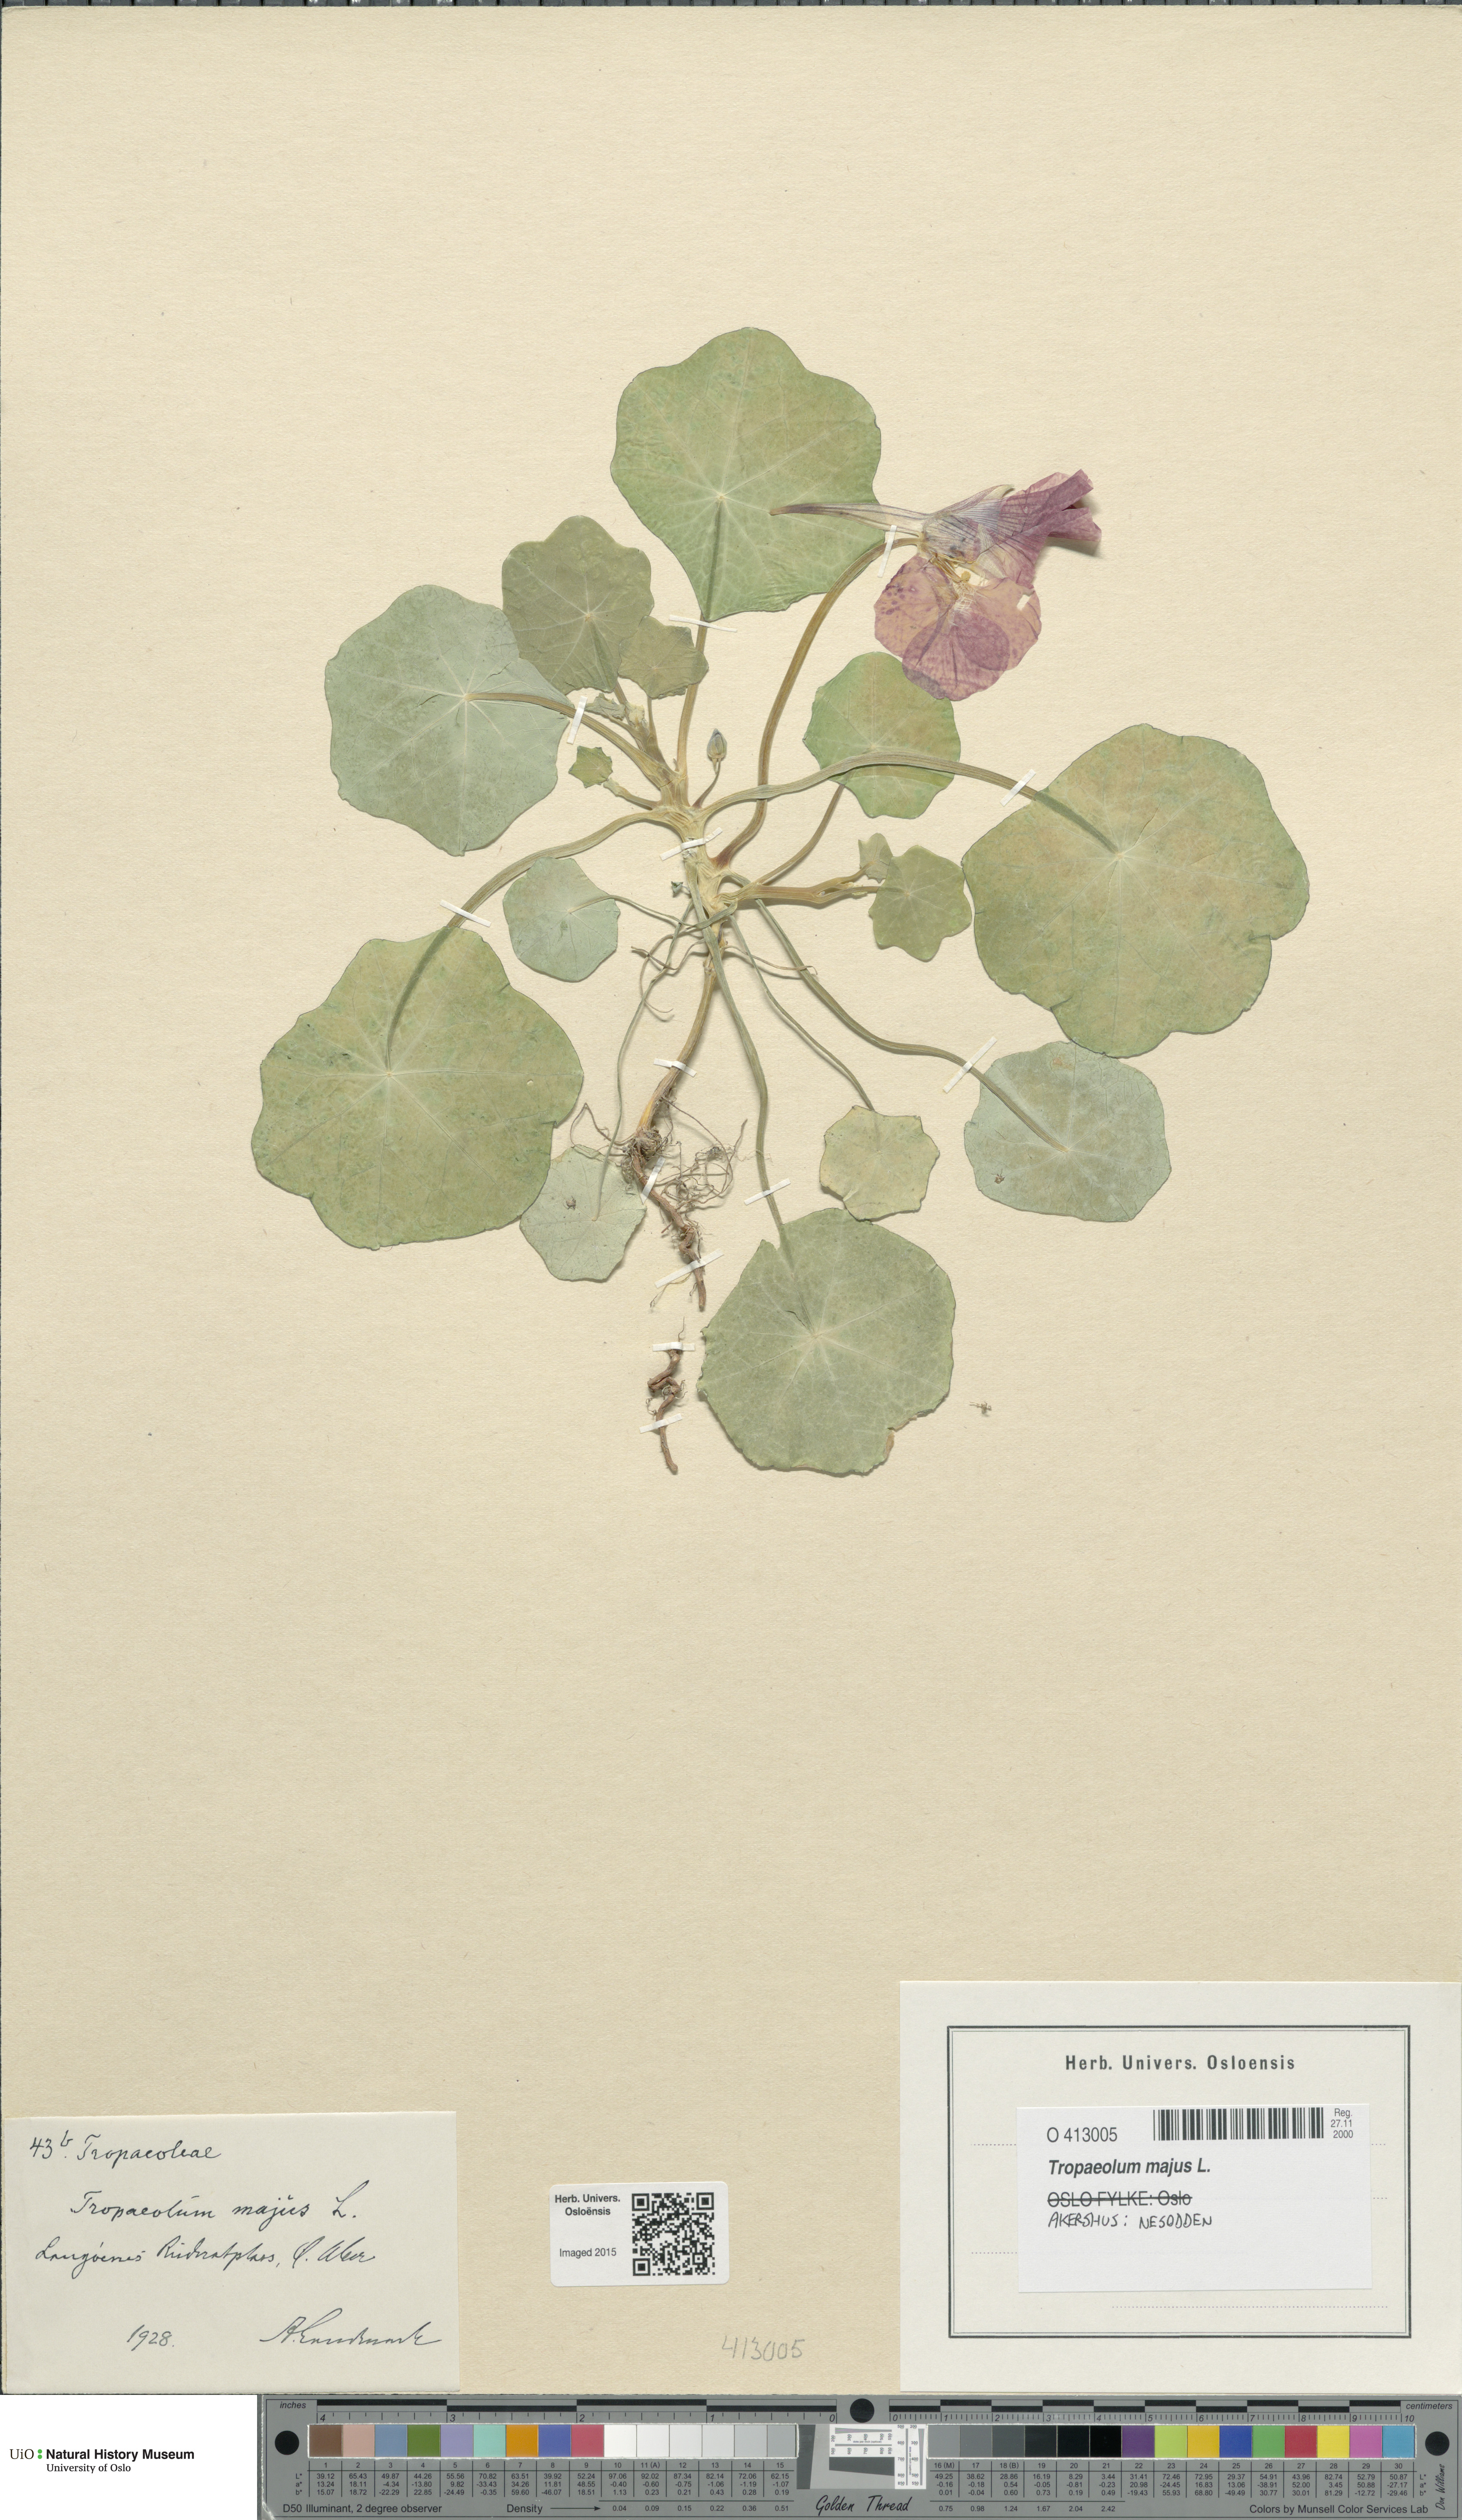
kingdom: Plantae
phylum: Tracheophyta
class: Magnoliopsida
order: Brassicales
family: Tropaeolaceae
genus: Tropaeolum
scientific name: Tropaeolum majus
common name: Nasturtium
